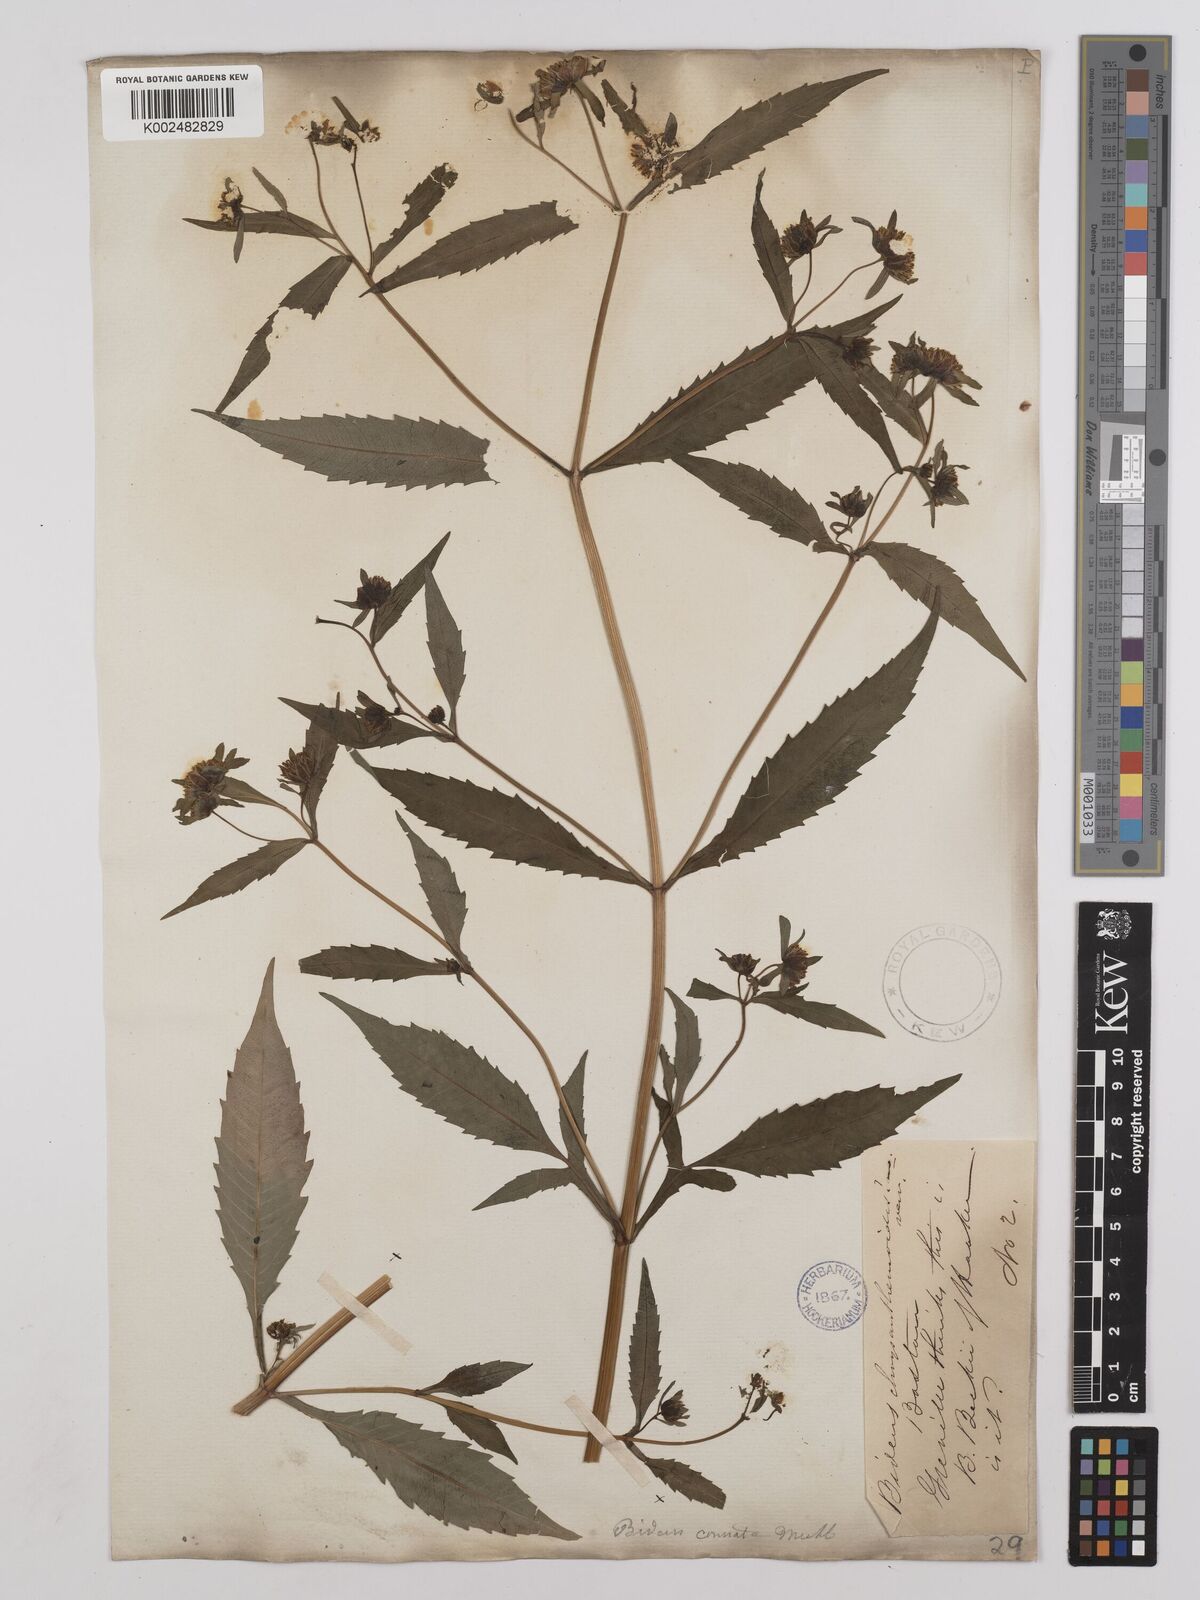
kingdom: Plantae
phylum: Tracheophyta
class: Magnoliopsida
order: Asterales
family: Asteraceae
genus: Bidens
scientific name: Bidens connata
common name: London bur-marigold
